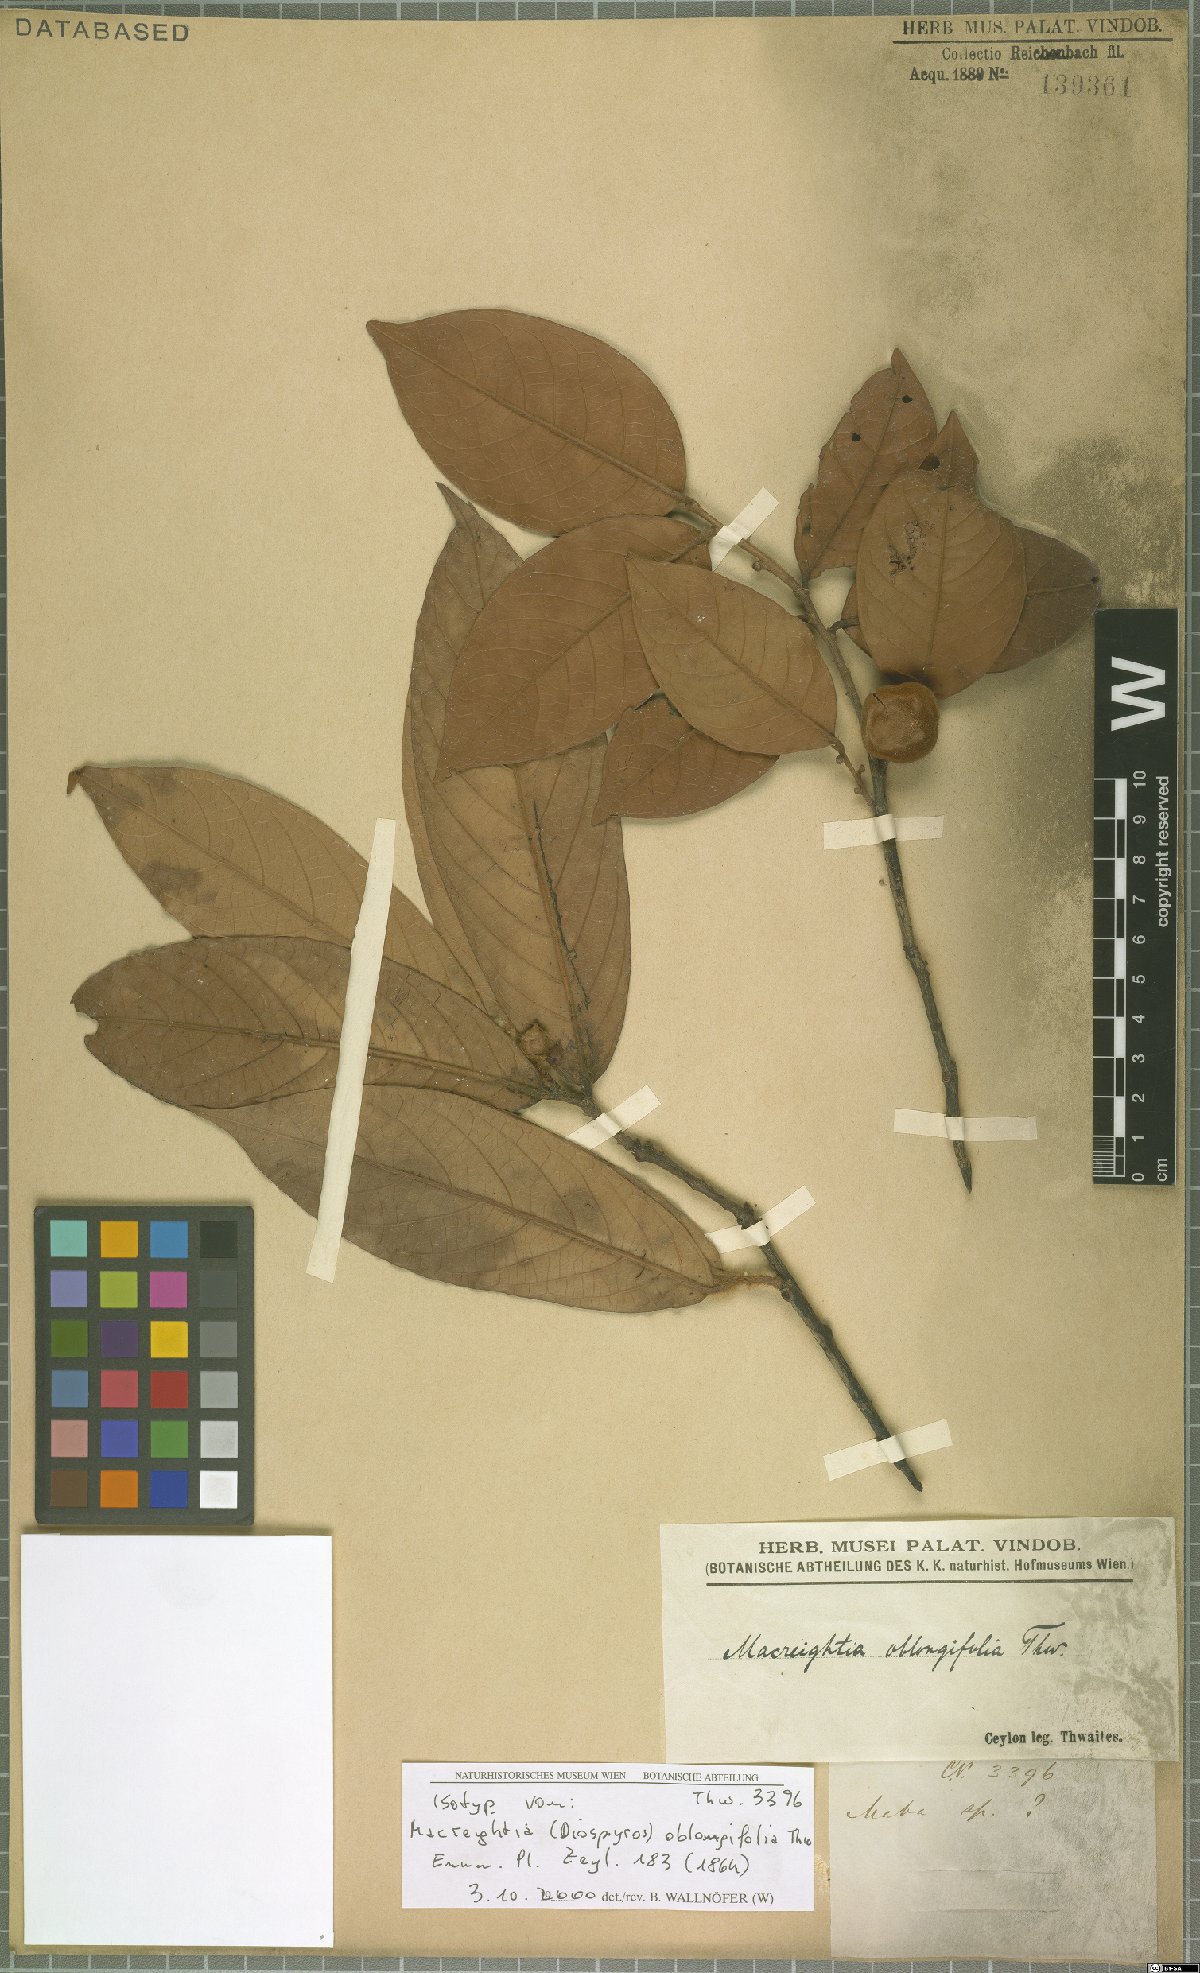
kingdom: Plantae
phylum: Tracheophyta
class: Magnoliopsida
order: Ericales
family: Ebenaceae
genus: Diospyros
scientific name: Diospyros srilankana
